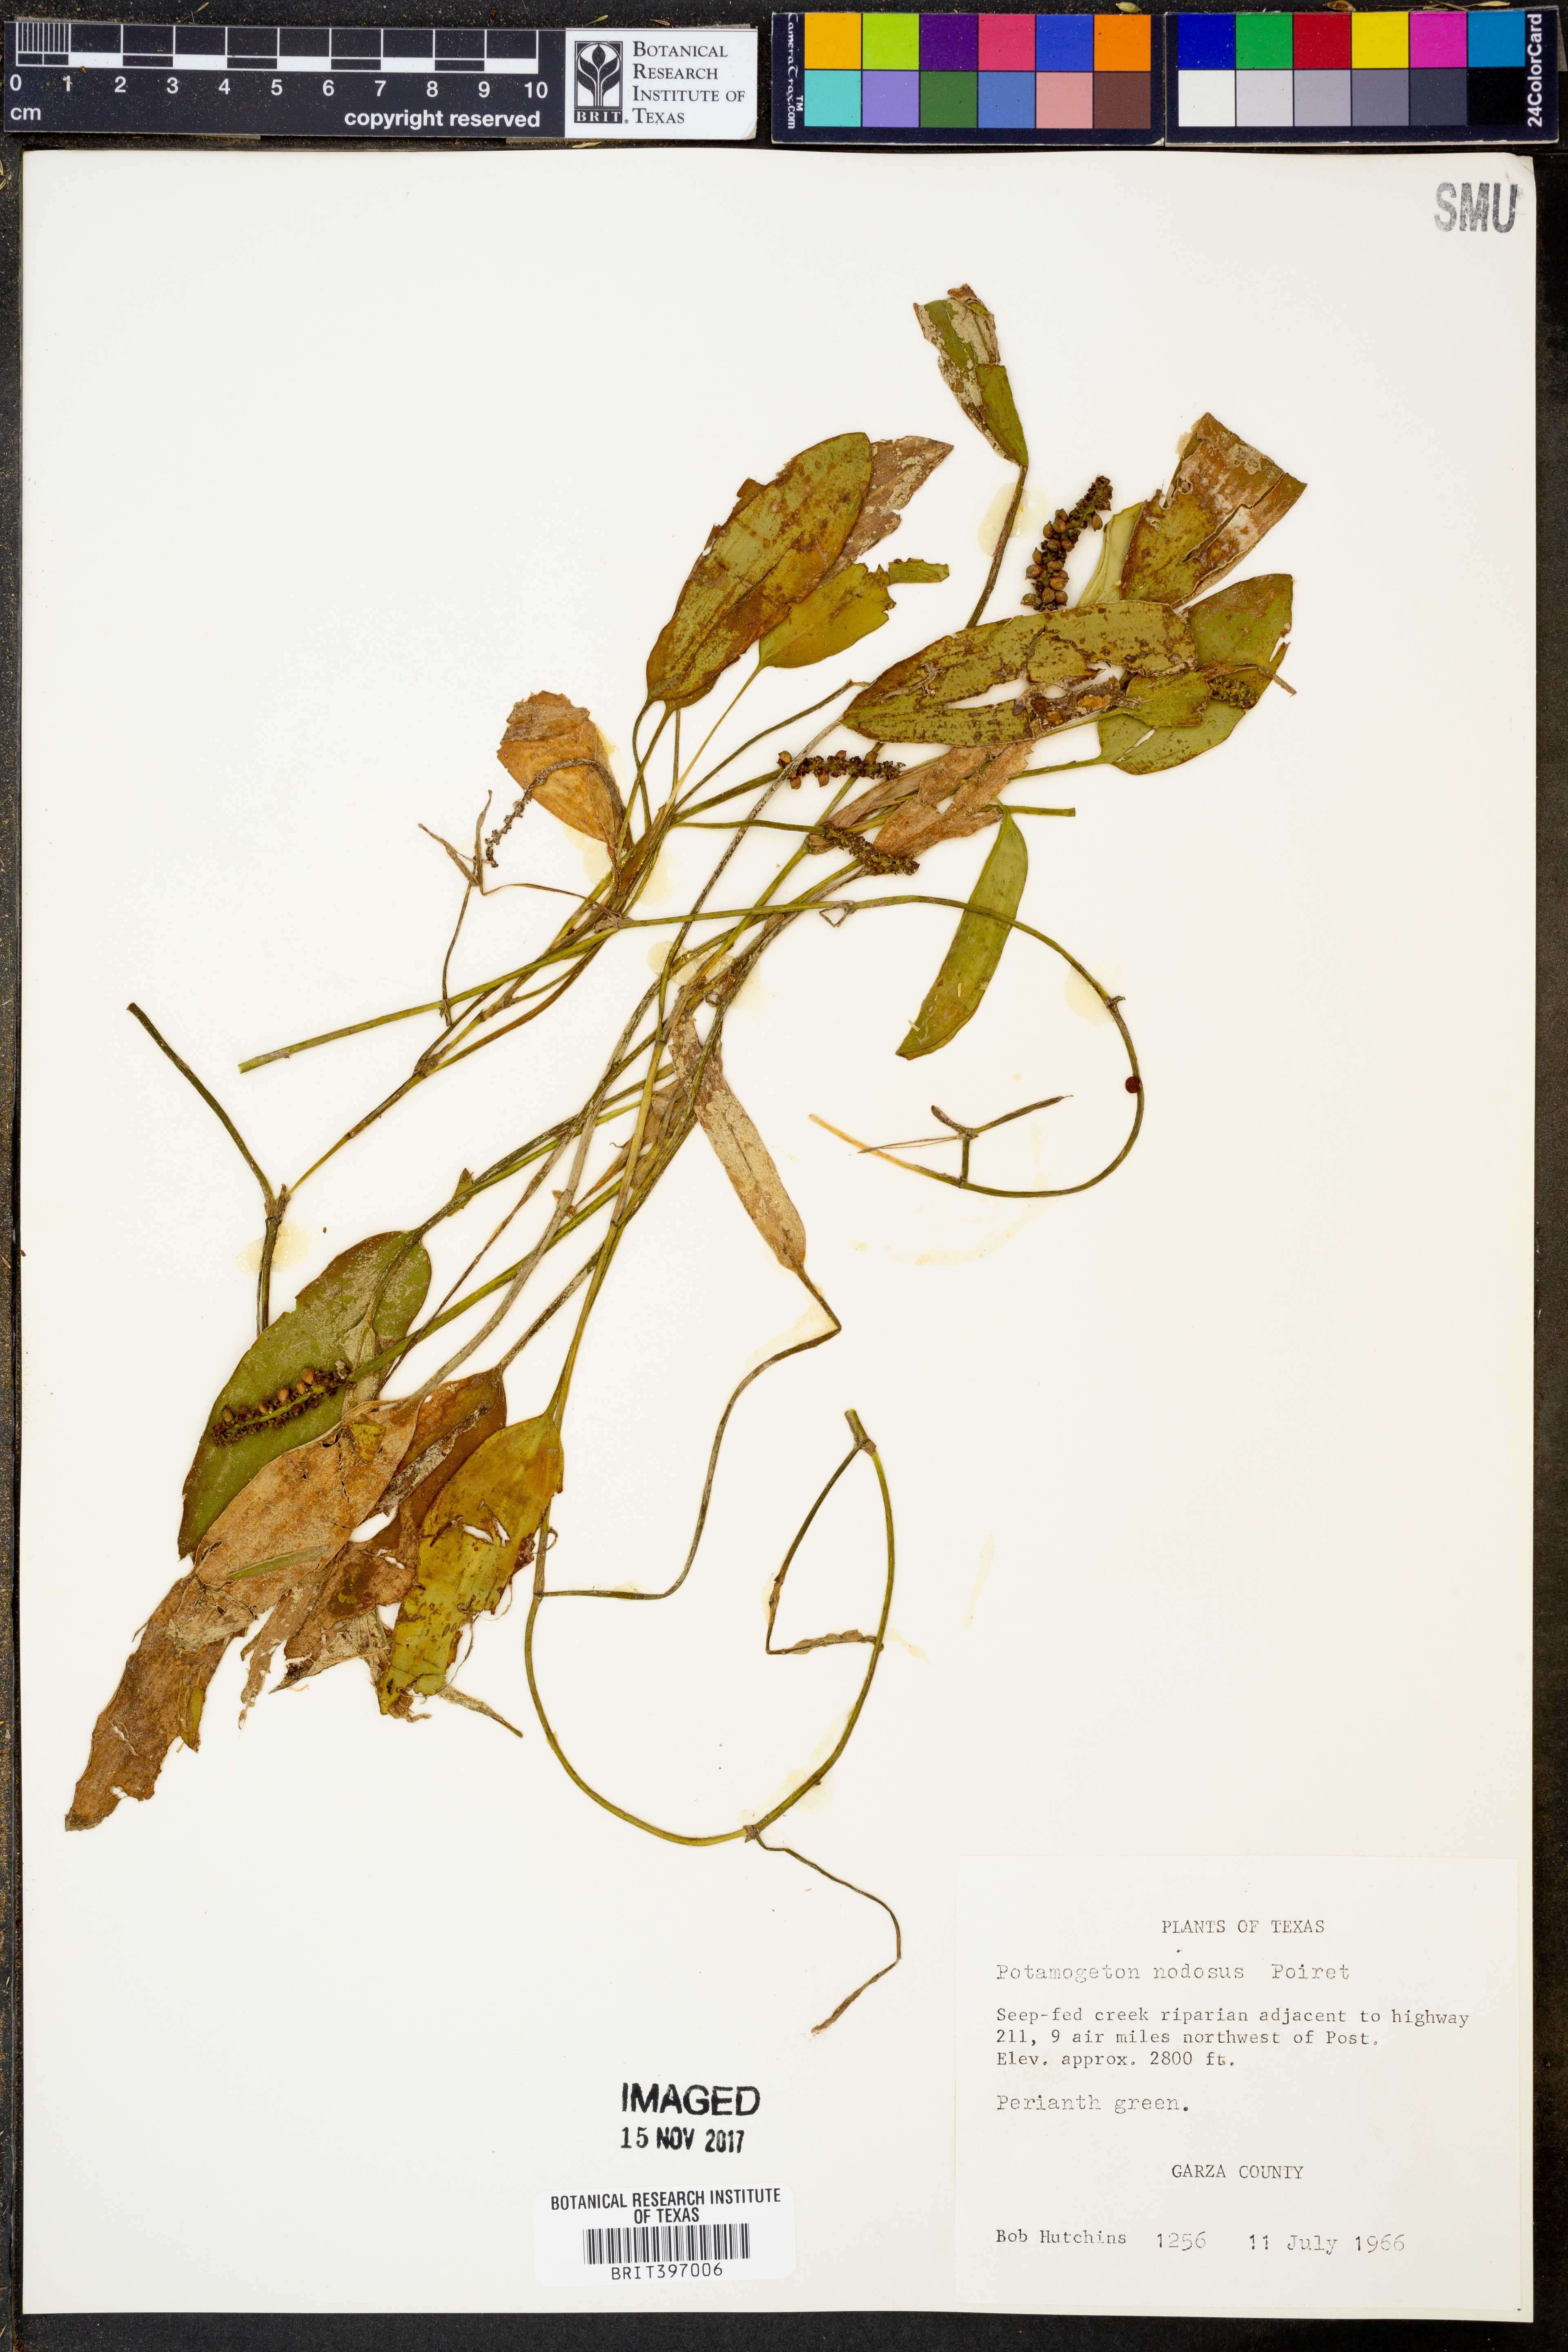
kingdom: Plantae
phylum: Tracheophyta
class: Liliopsida
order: Alismatales
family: Potamogetonaceae
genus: Potamogeton
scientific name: Potamogeton nodosus
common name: Loddon pondweed
